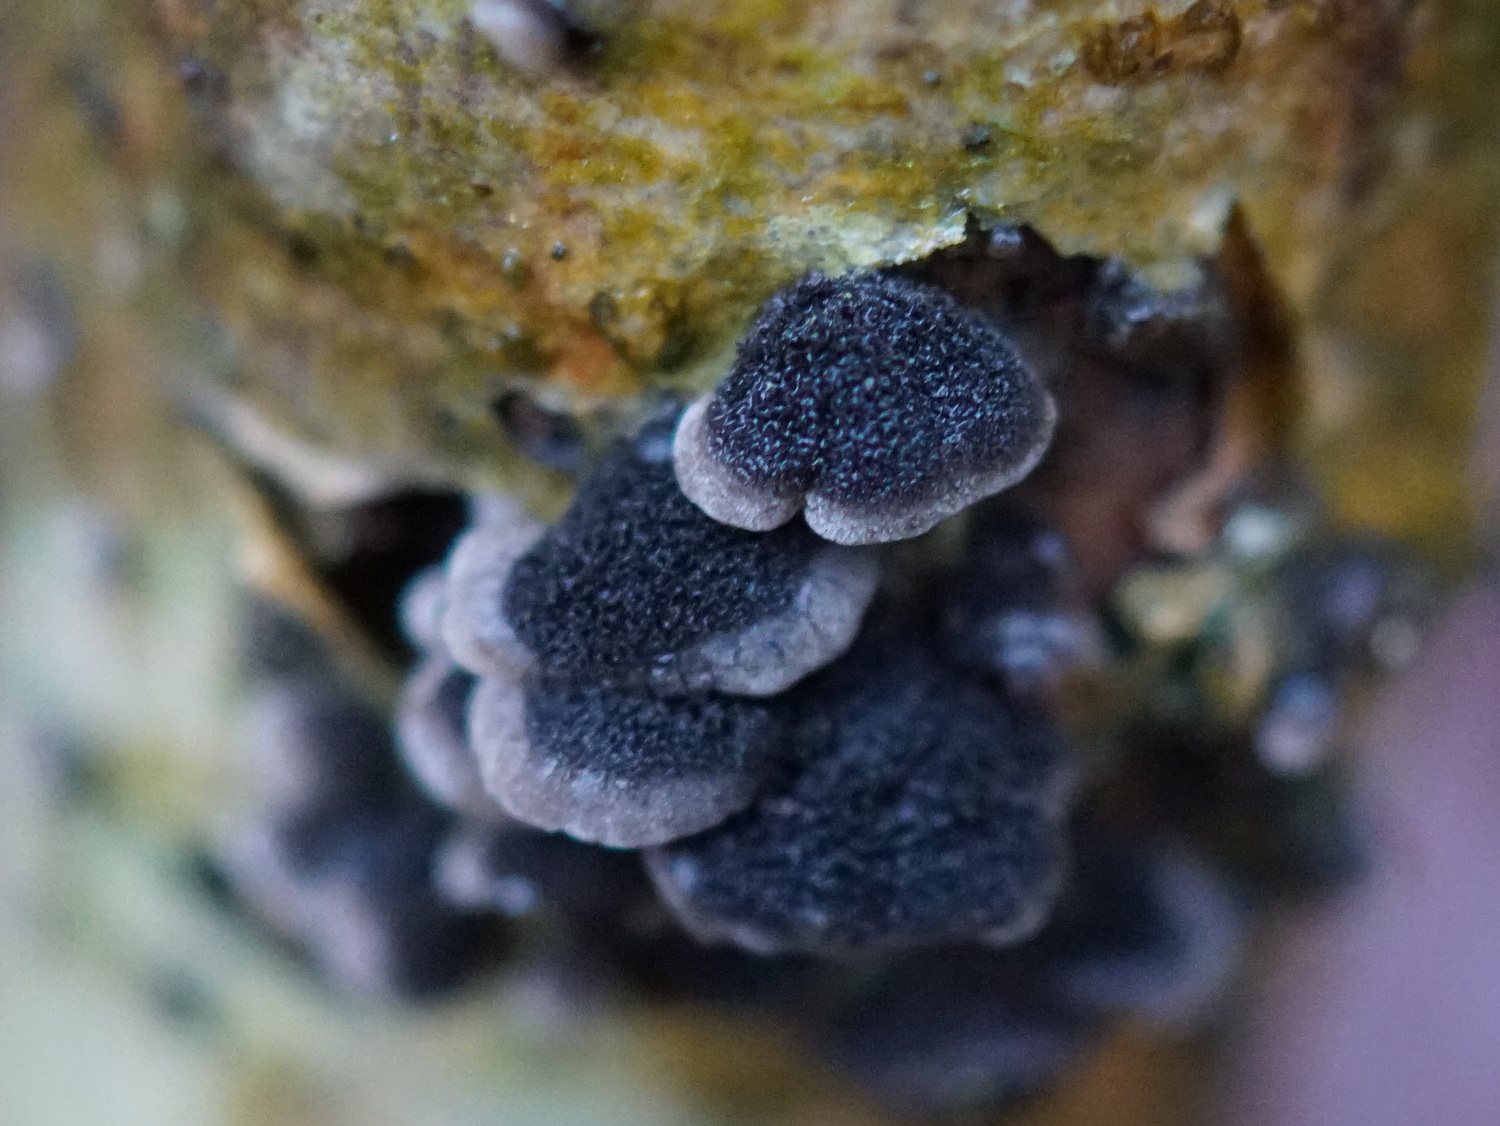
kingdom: Fungi
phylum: Basidiomycota
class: Agaricomycetes
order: Agaricales
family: Pleurotaceae
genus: Resupinatus
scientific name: Resupinatus trichotis
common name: mørkfiltet barkhat
